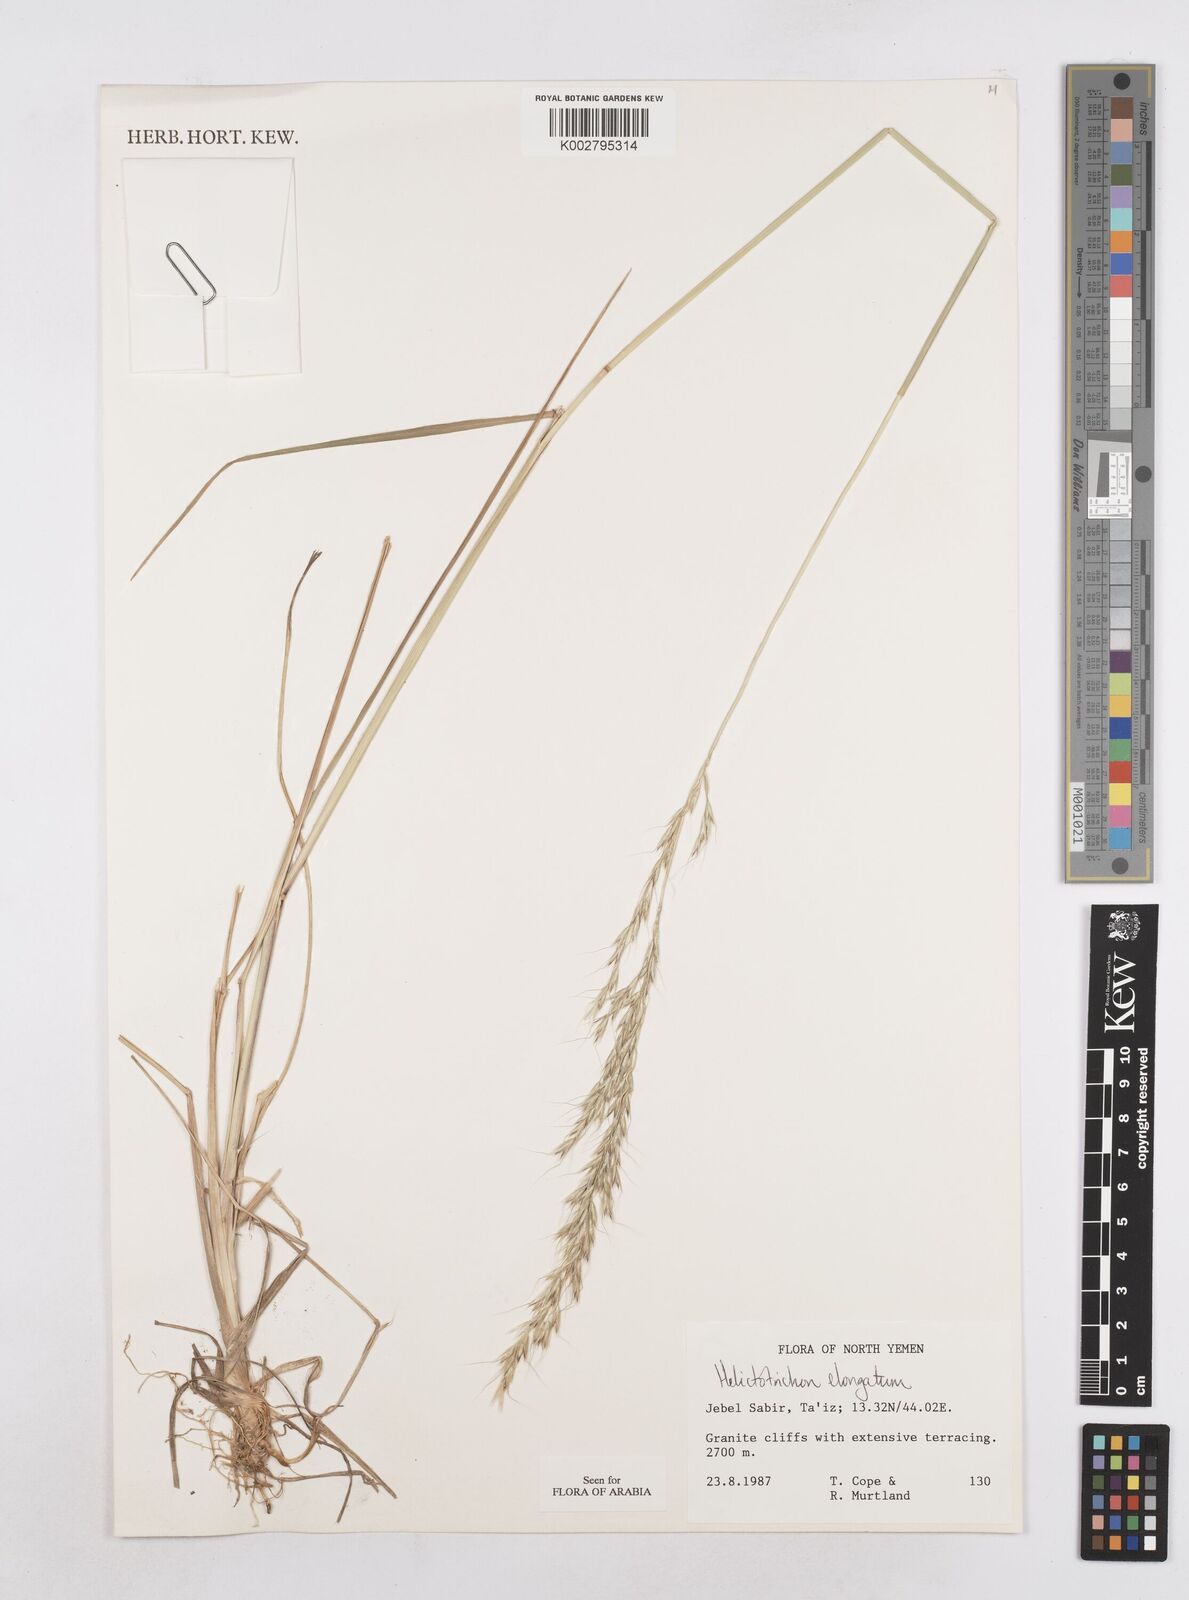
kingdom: Plantae
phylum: Tracheophyta
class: Liliopsida
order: Poales
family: Poaceae
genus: Trisetopsis
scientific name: Trisetopsis elongata
